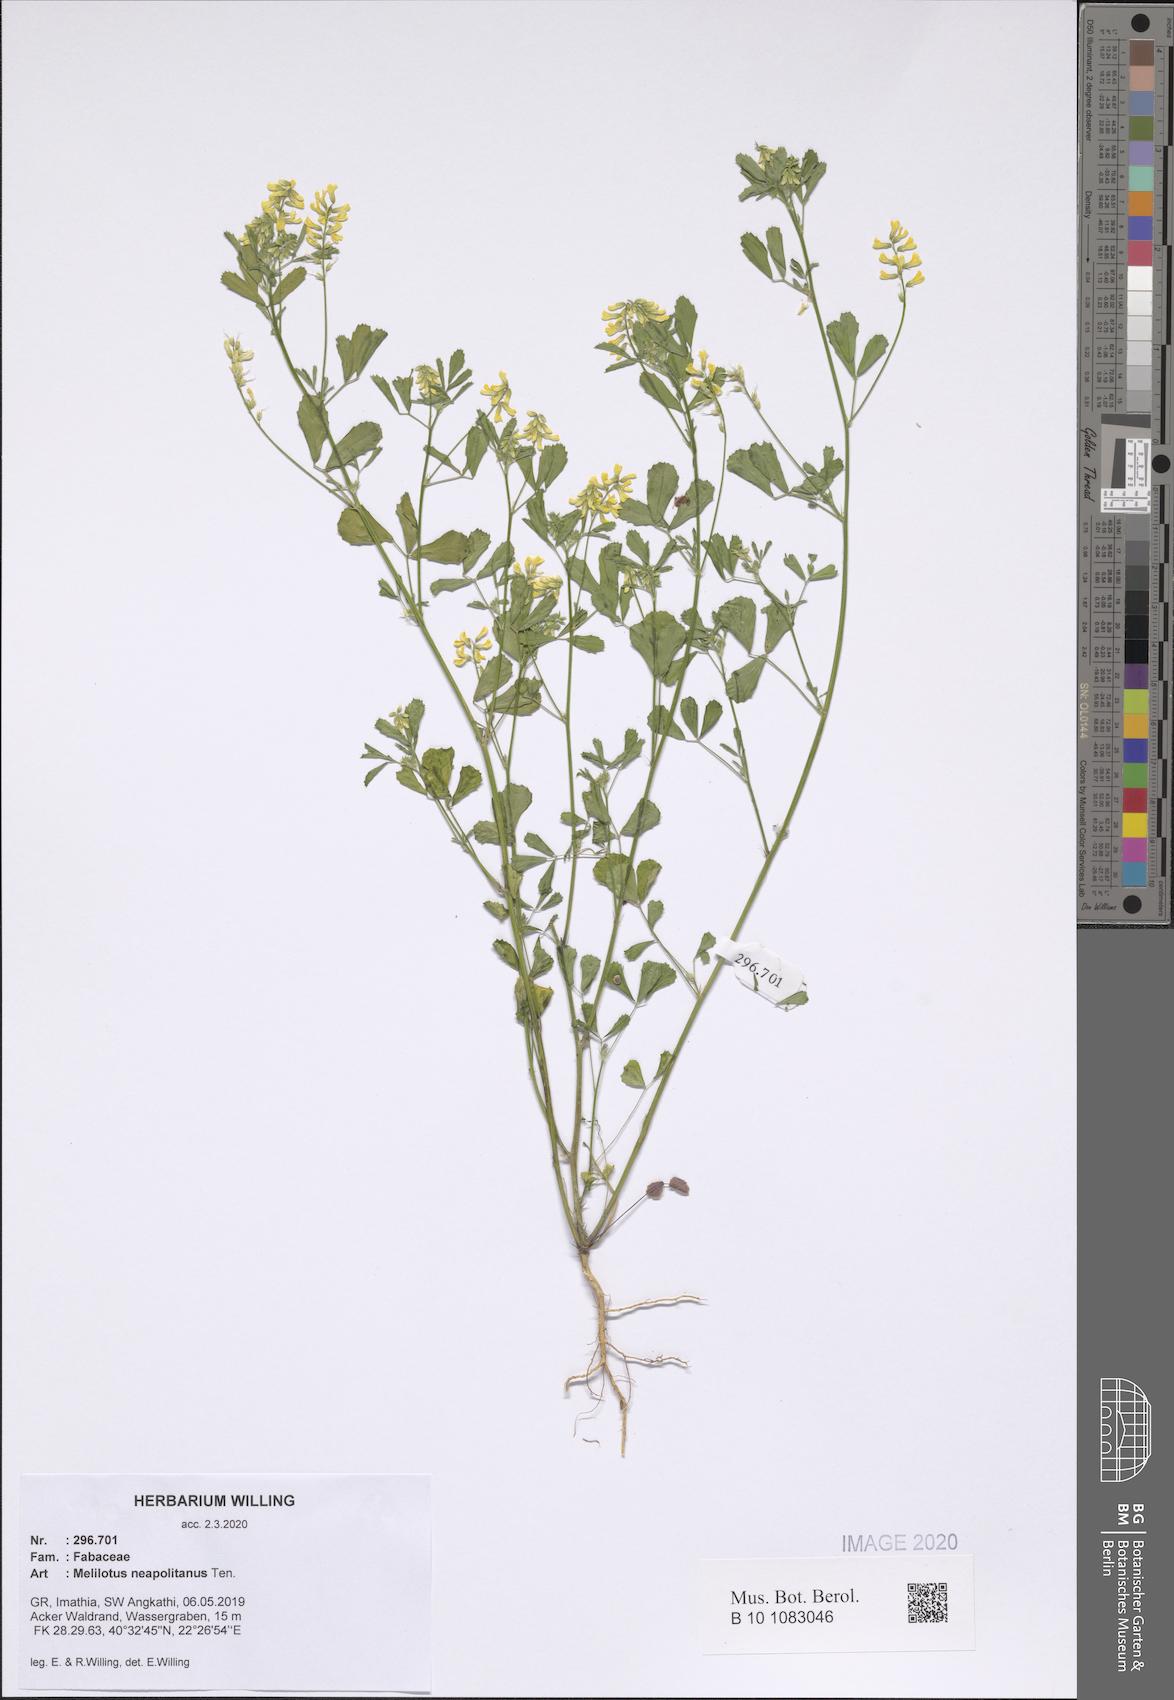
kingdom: Plantae
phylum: Tracheophyta
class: Magnoliopsida
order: Fabales
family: Fabaceae
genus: Melilotus
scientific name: Melilotus neapolitanus
